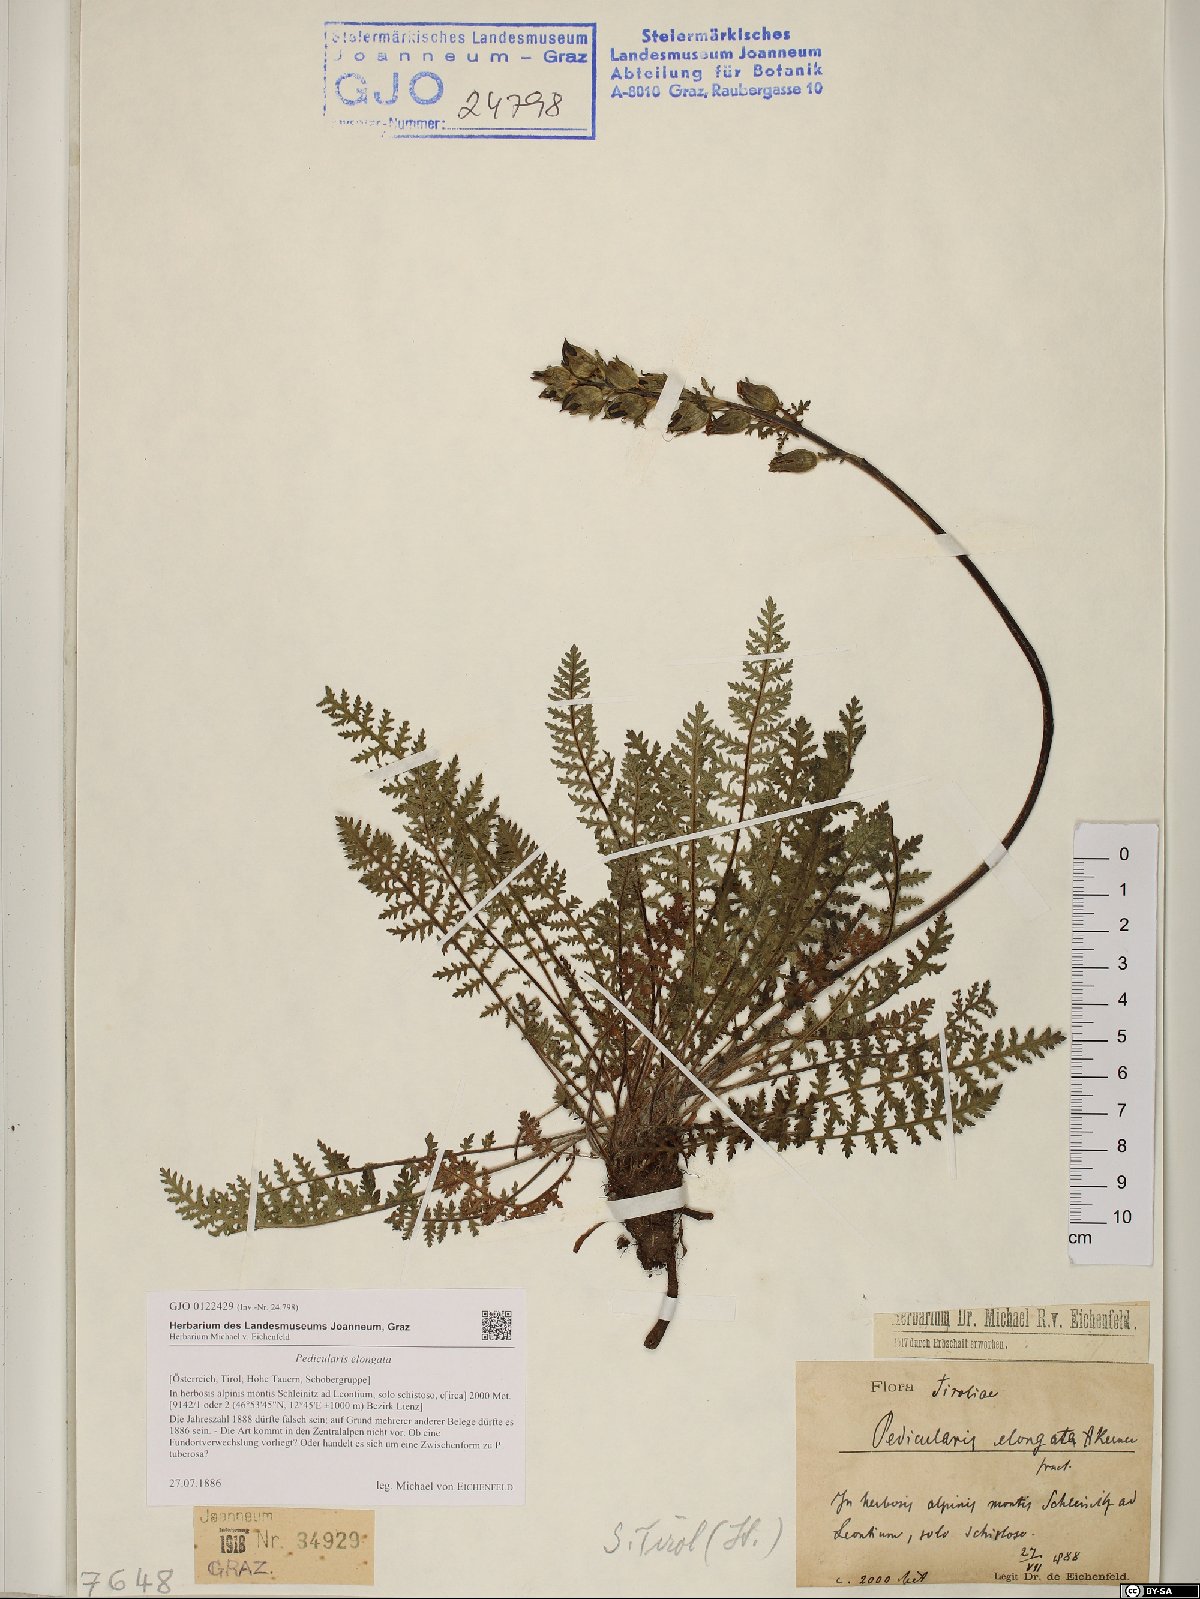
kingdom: Plantae
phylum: Tracheophyta
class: Magnoliopsida
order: Lamiales
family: Orobanchaceae
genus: Pedicularis
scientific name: Pedicularis elongata
